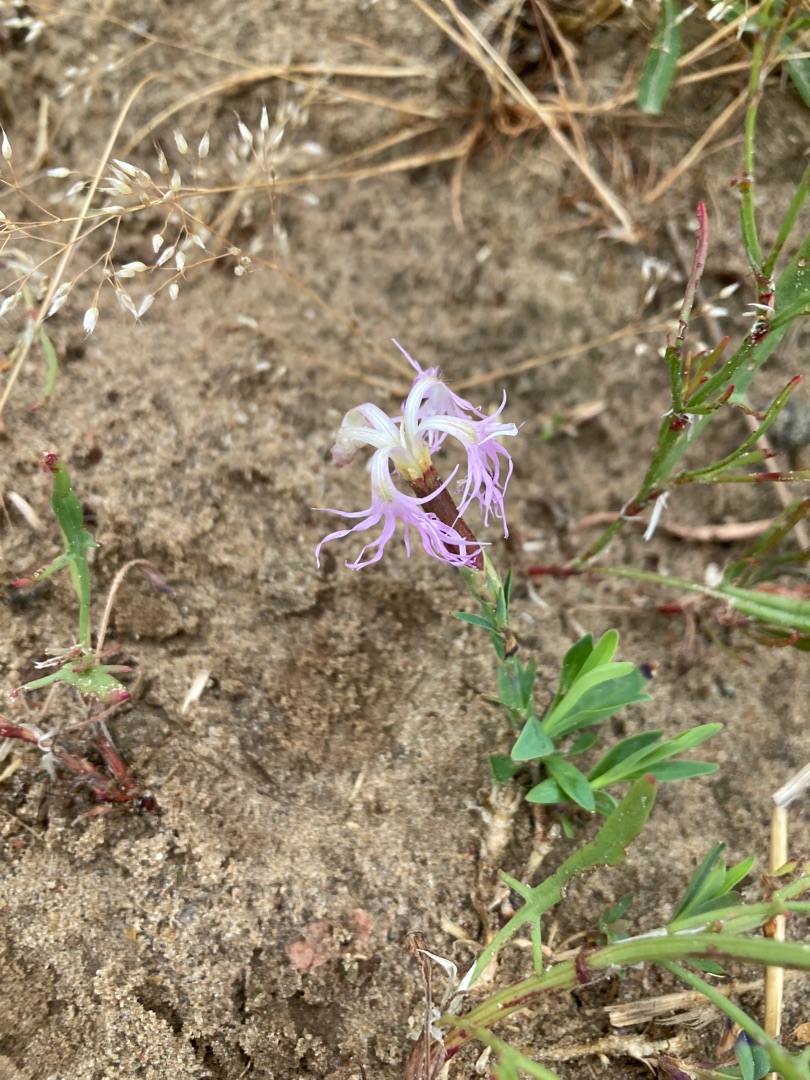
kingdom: Plantae
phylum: Tracheophyta
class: Magnoliopsida
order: Caryophyllales
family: Caryophyllaceae
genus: Dianthus
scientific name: Dianthus superbus
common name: Strand-nellike
